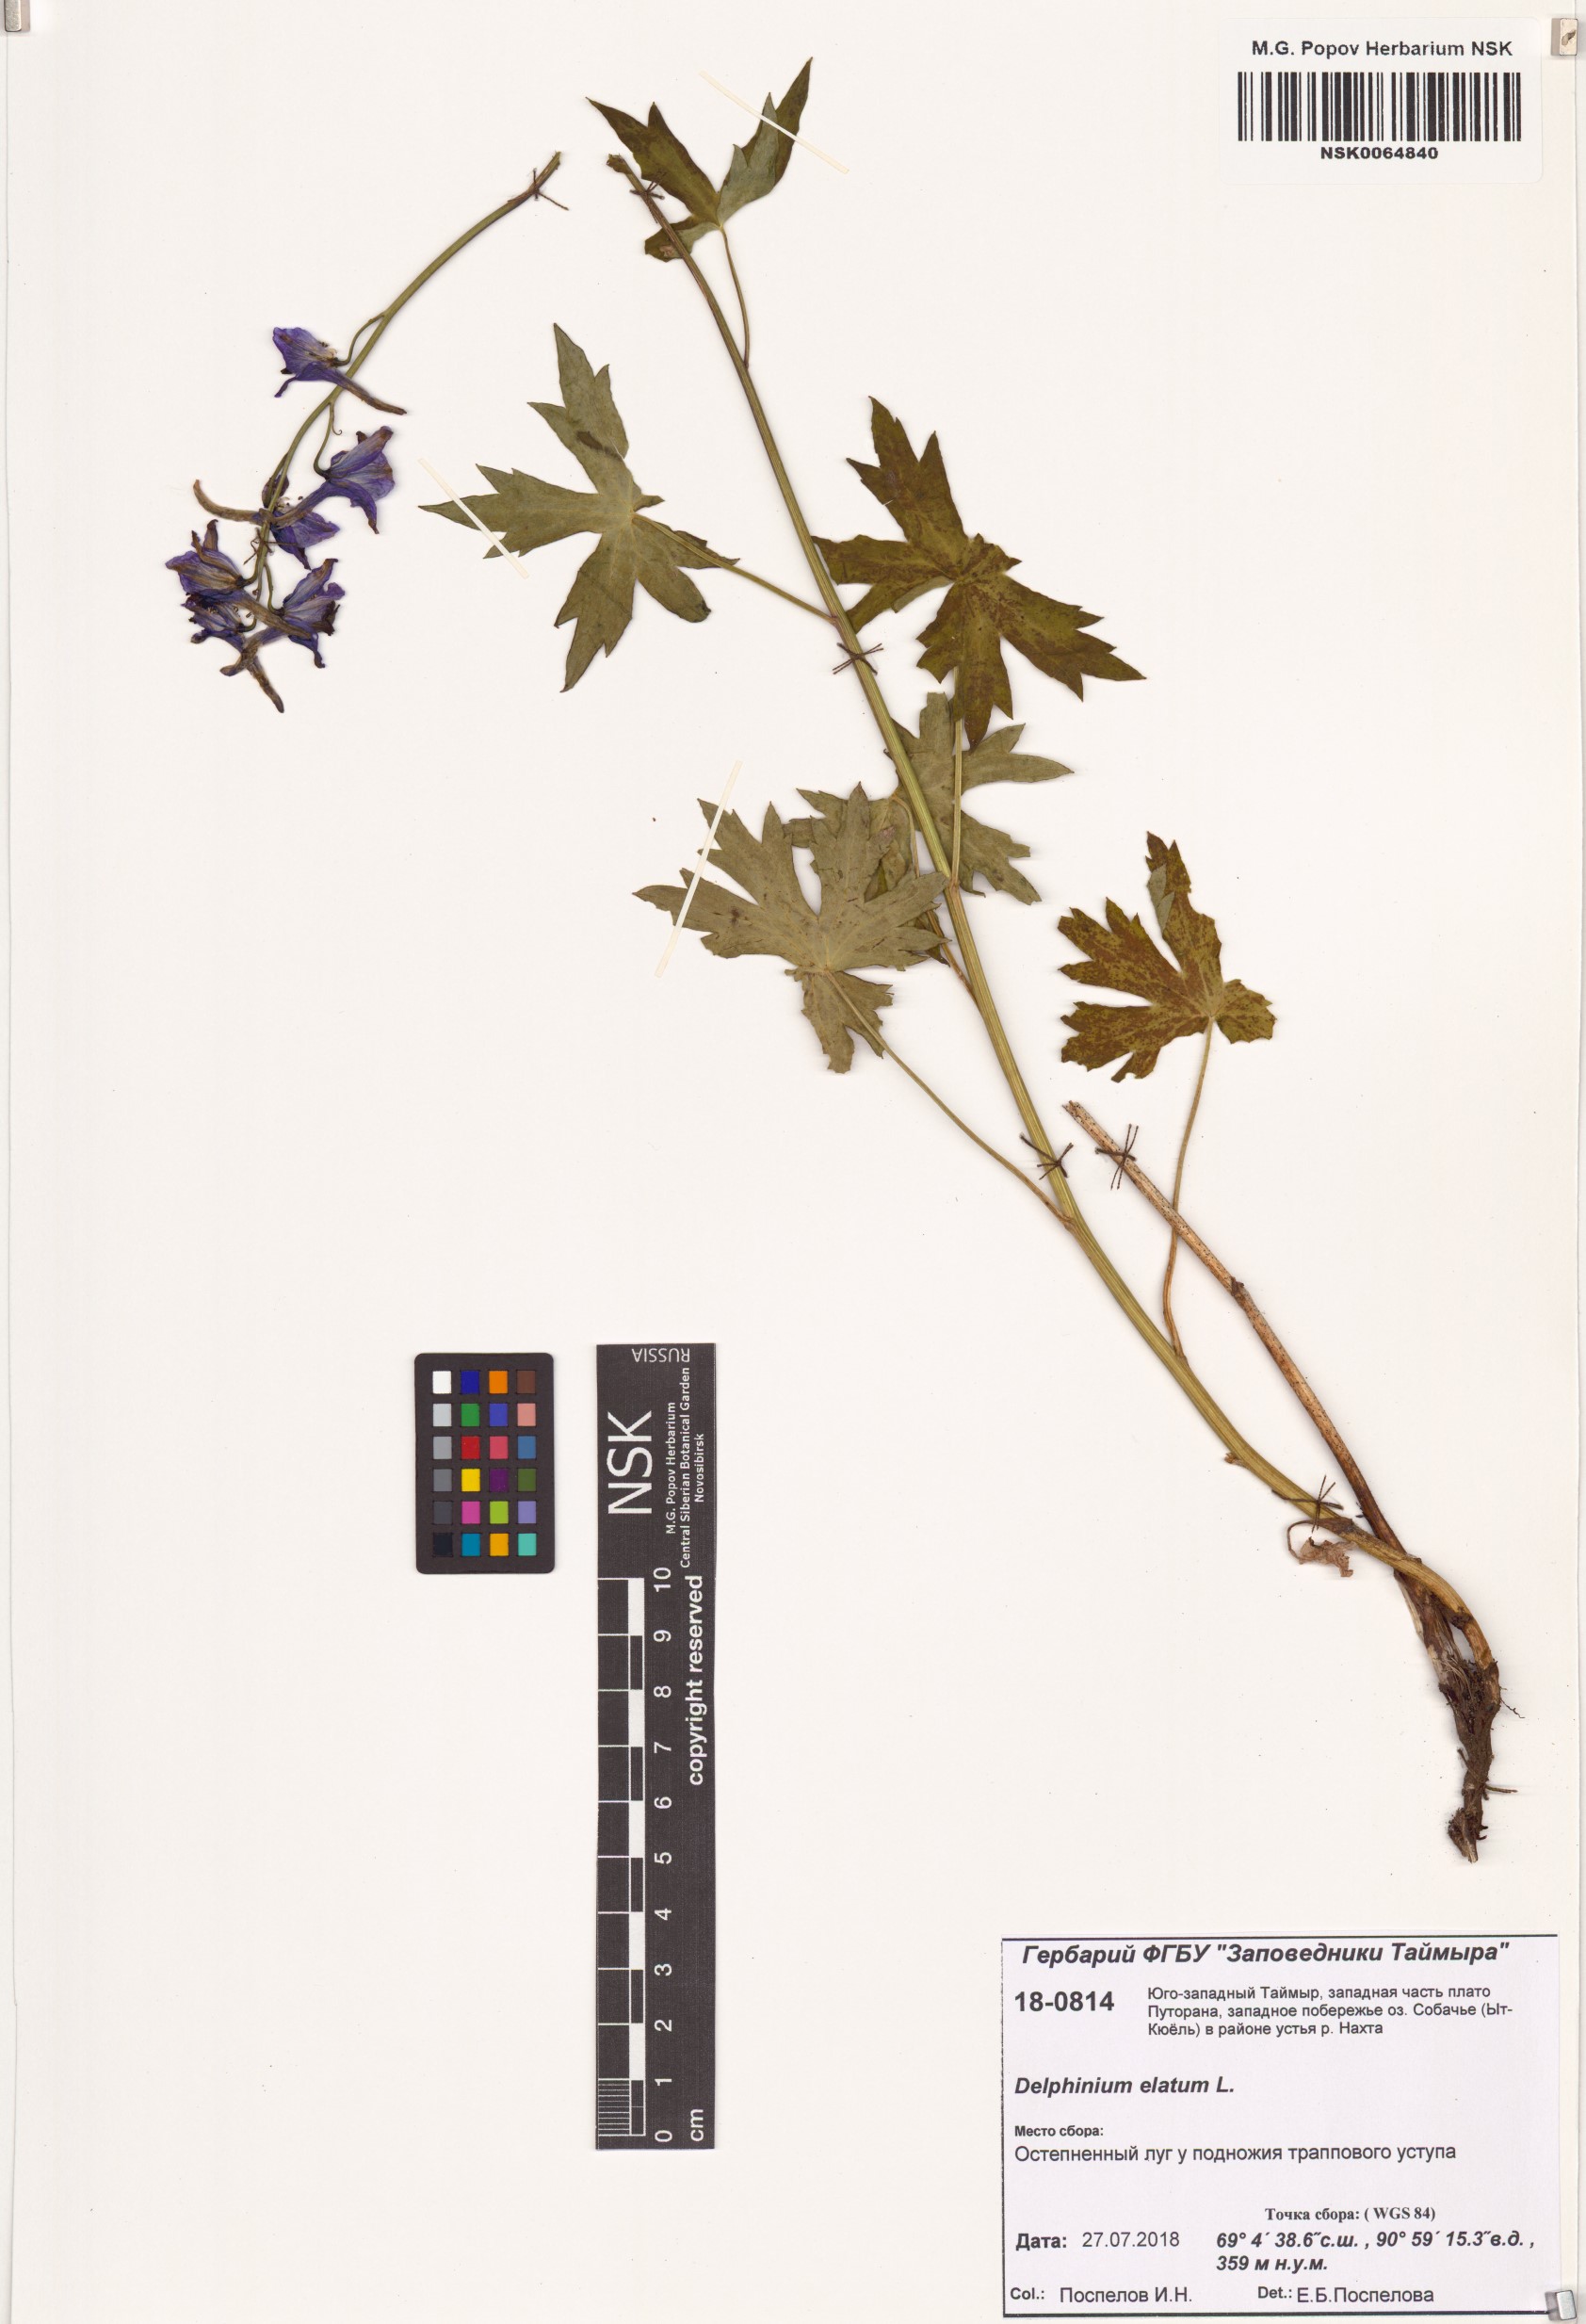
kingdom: Plantae
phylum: Tracheophyta
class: Magnoliopsida
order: Ranunculales
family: Ranunculaceae
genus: Delphinium
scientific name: Delphinium elatum
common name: Candle larkspur
